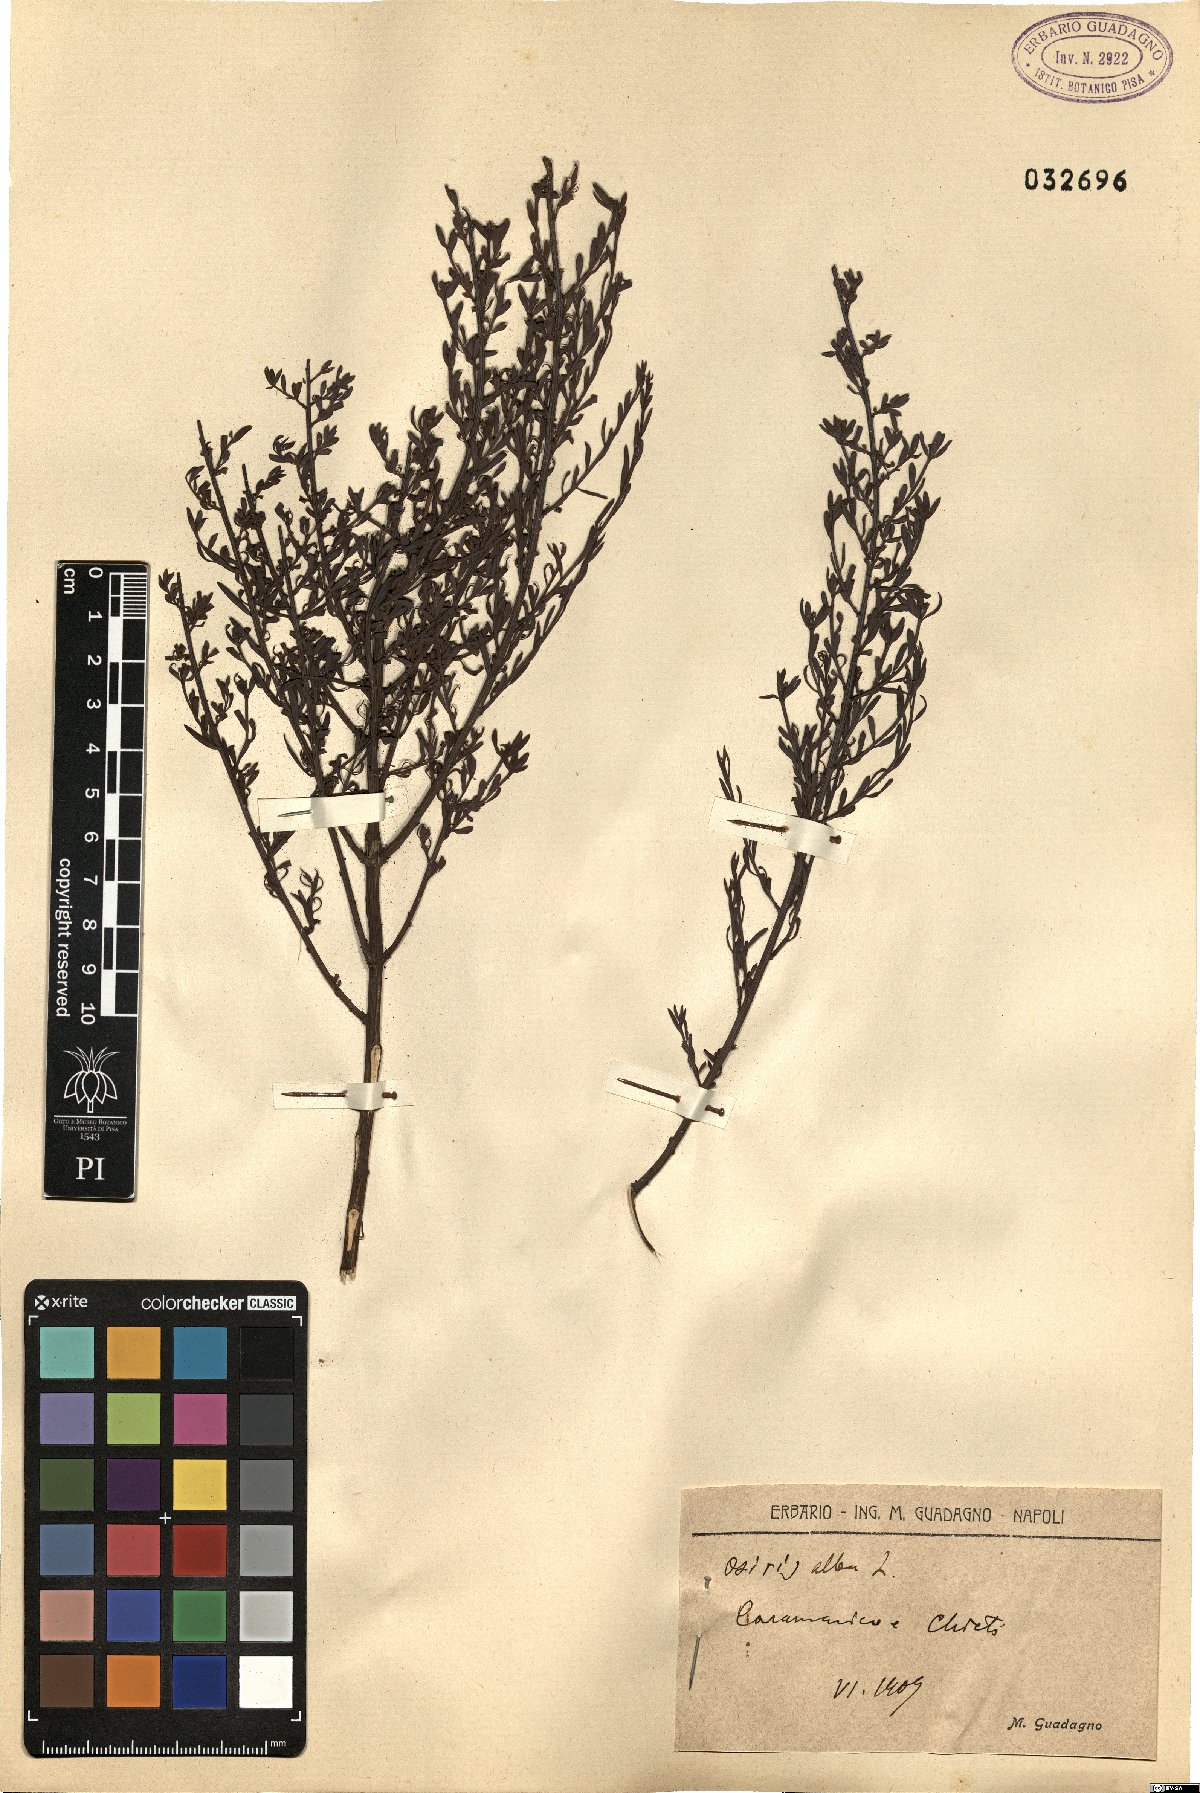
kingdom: Plantae
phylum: Tracheophyta
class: Magnoliopsida
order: Santalales
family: Santalaceae
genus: Osyris
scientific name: Osyris alba
